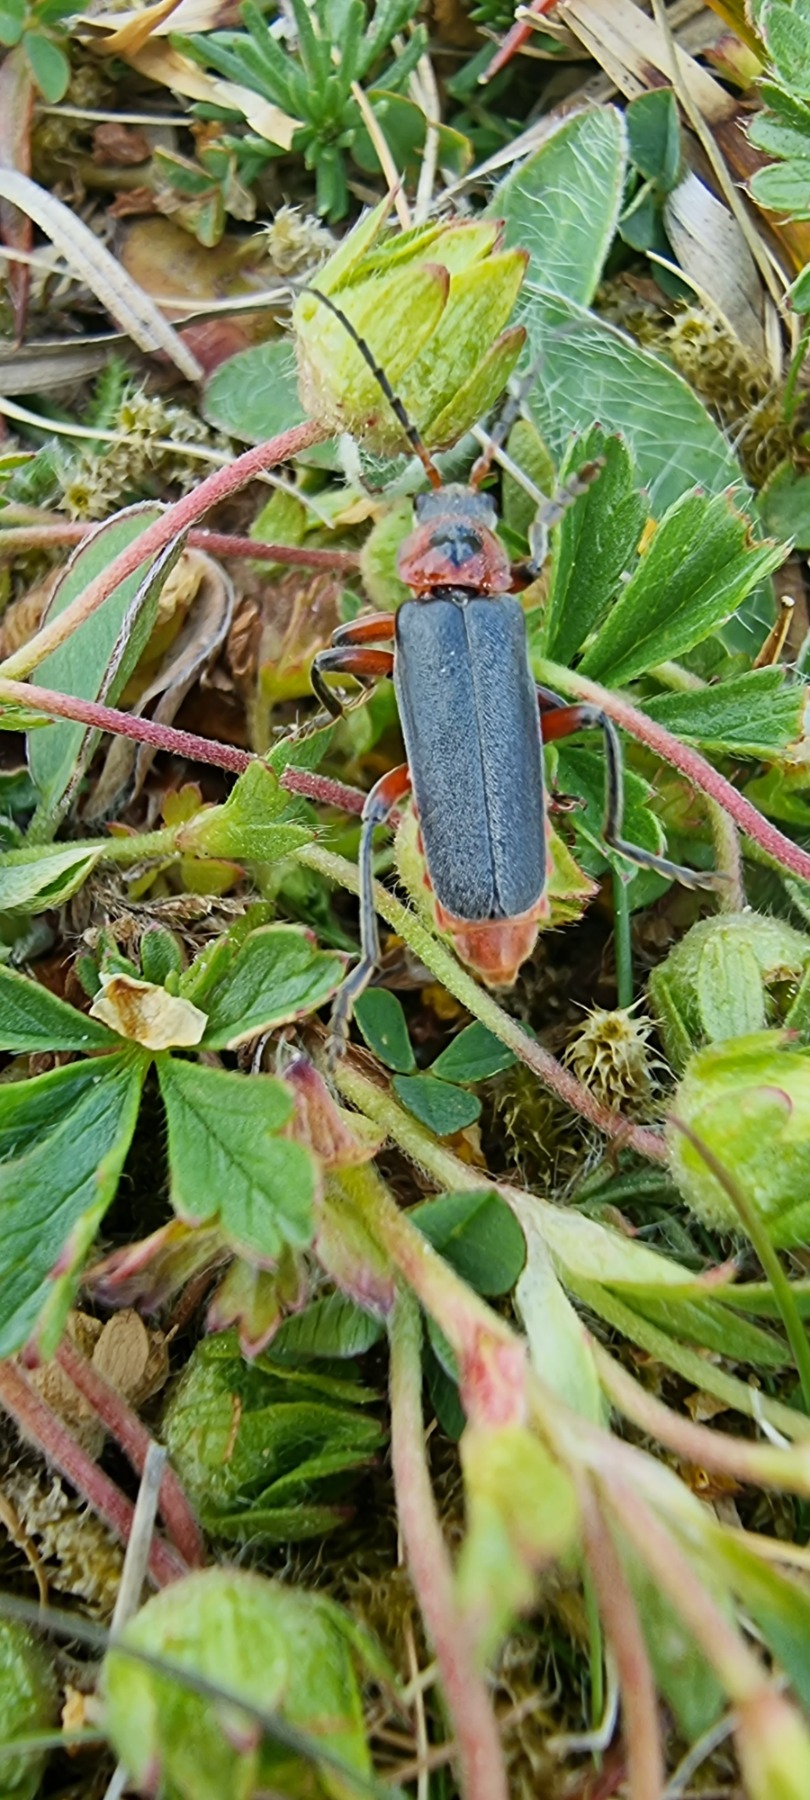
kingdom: Animalia
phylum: Arthropoda
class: Insecta
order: Coleoptera
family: Cantharidae
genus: Cantharis
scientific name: Cantharis rustica
